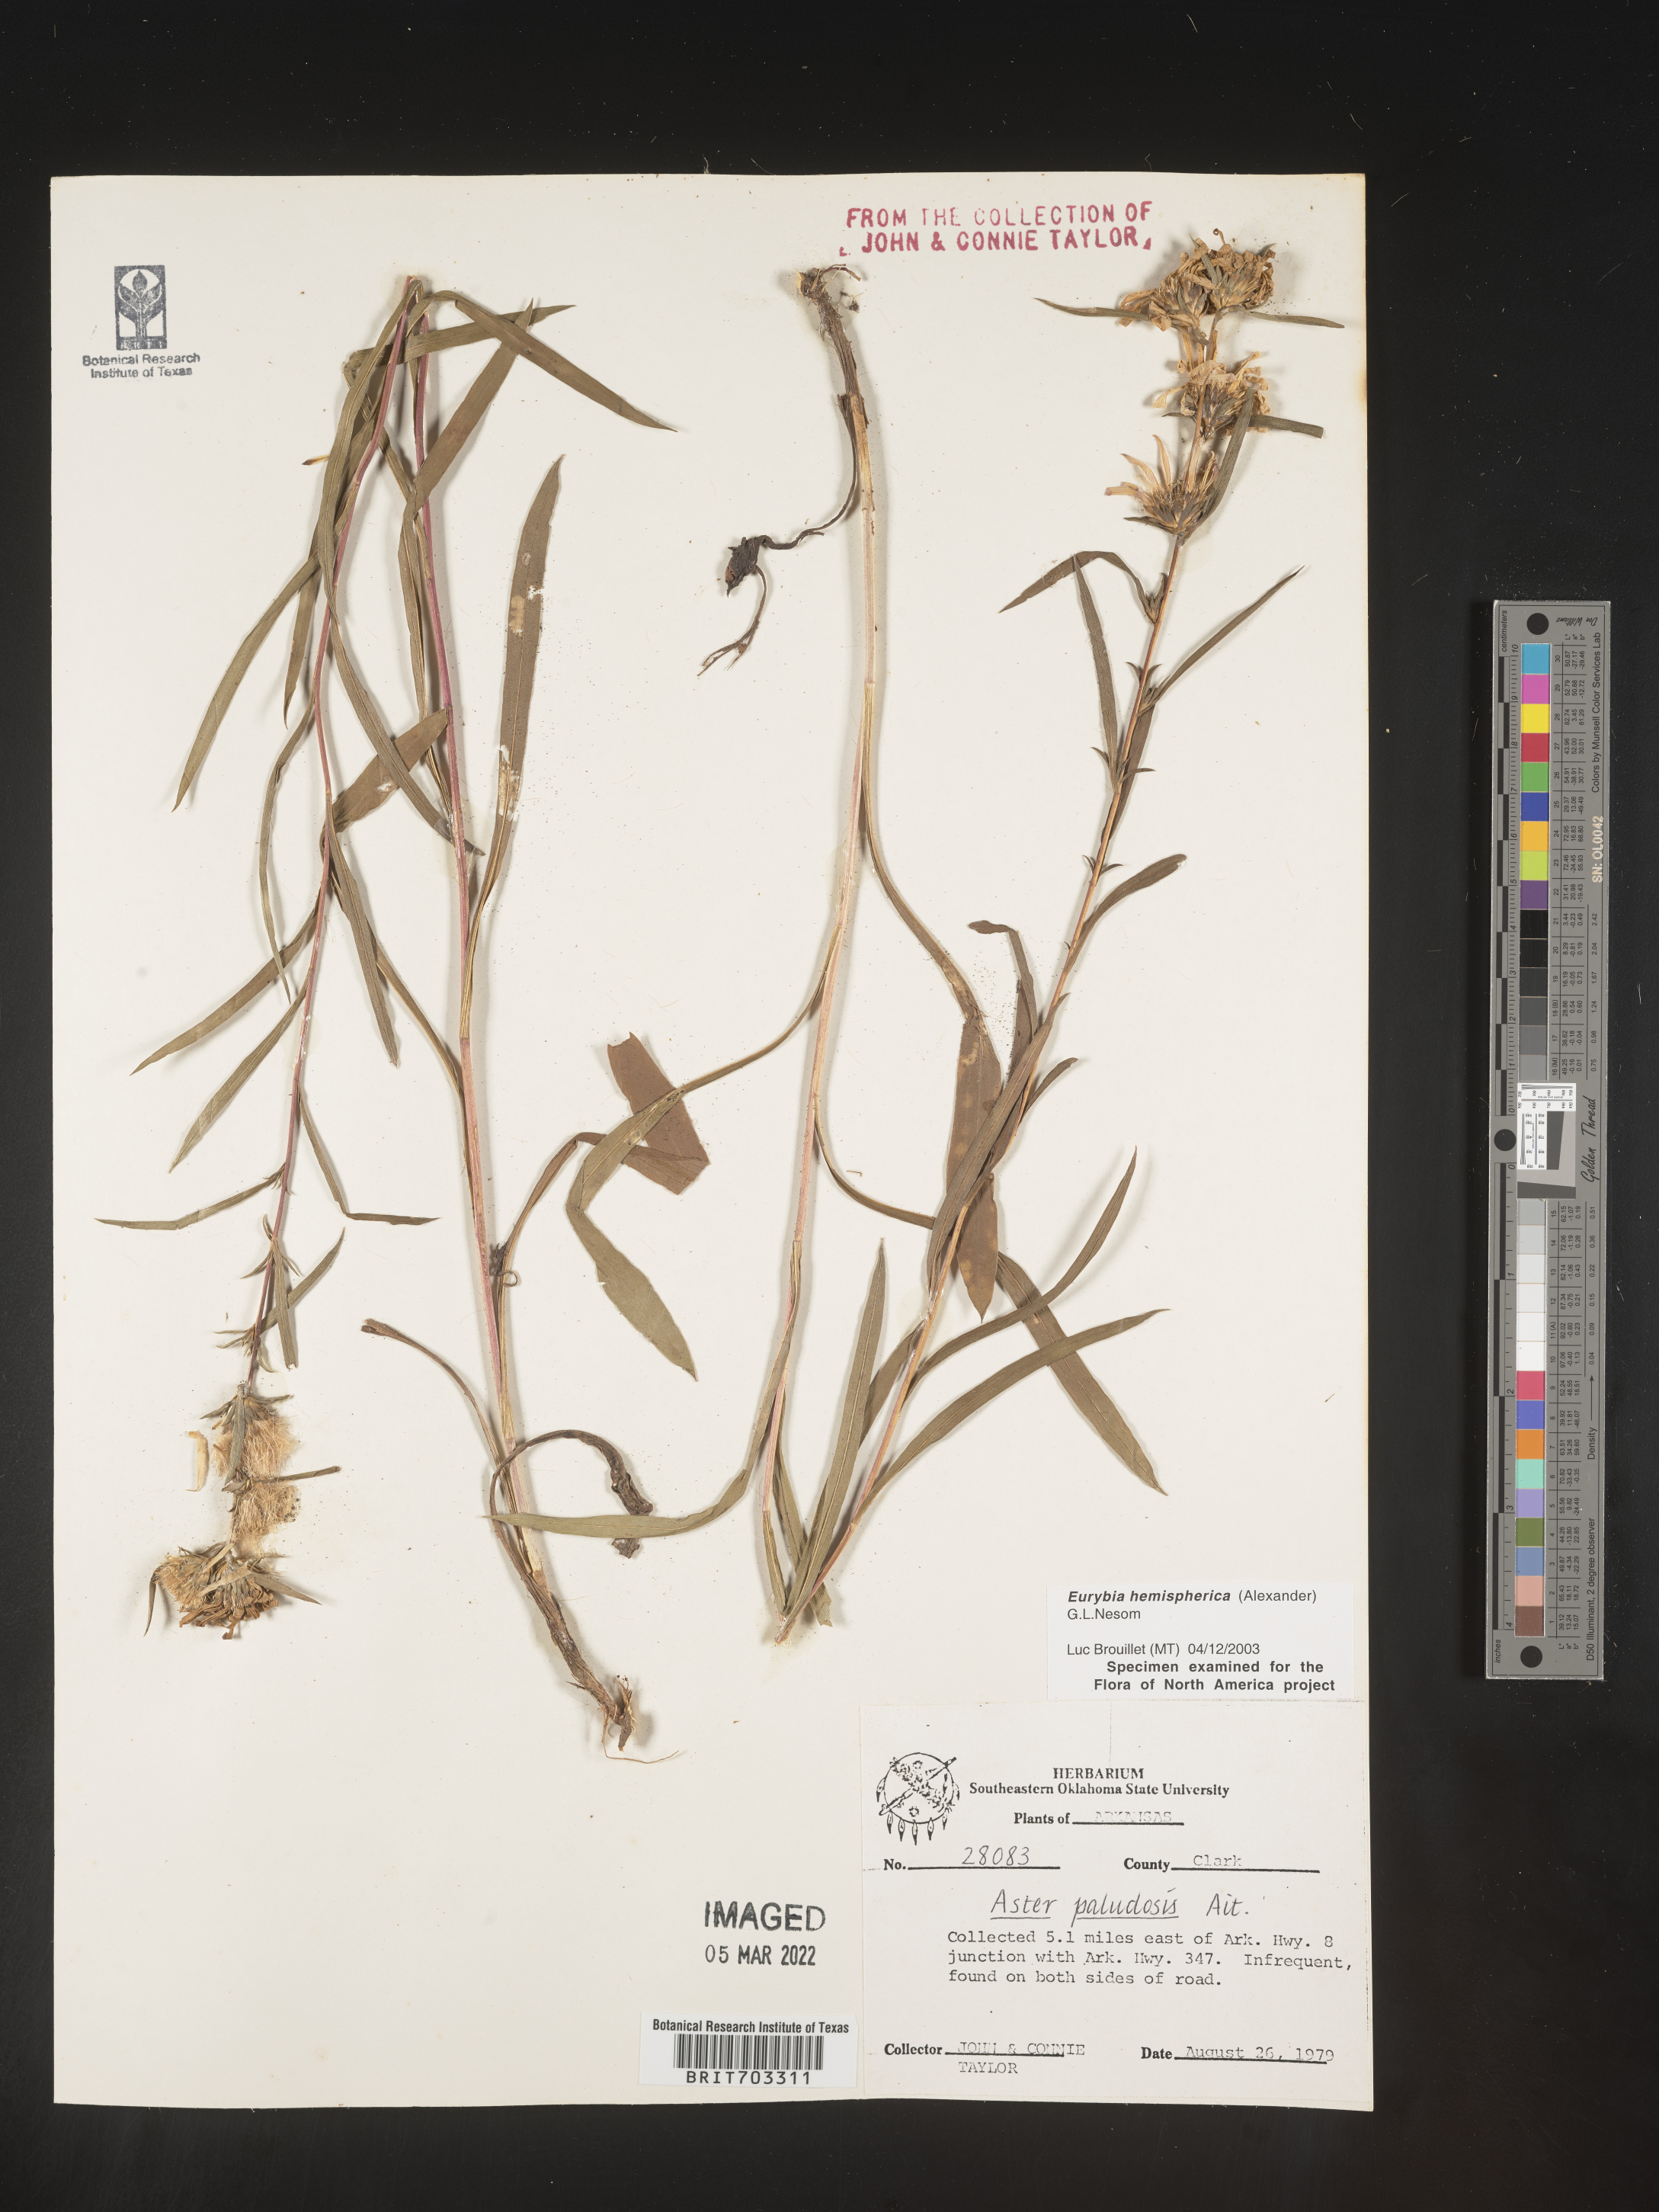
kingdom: Plantae
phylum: Tracheophyta
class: Magnoliopsida
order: Asterales
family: Asteraceae
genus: Eurybia
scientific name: Eurybia hemispherica
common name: Showy aster
